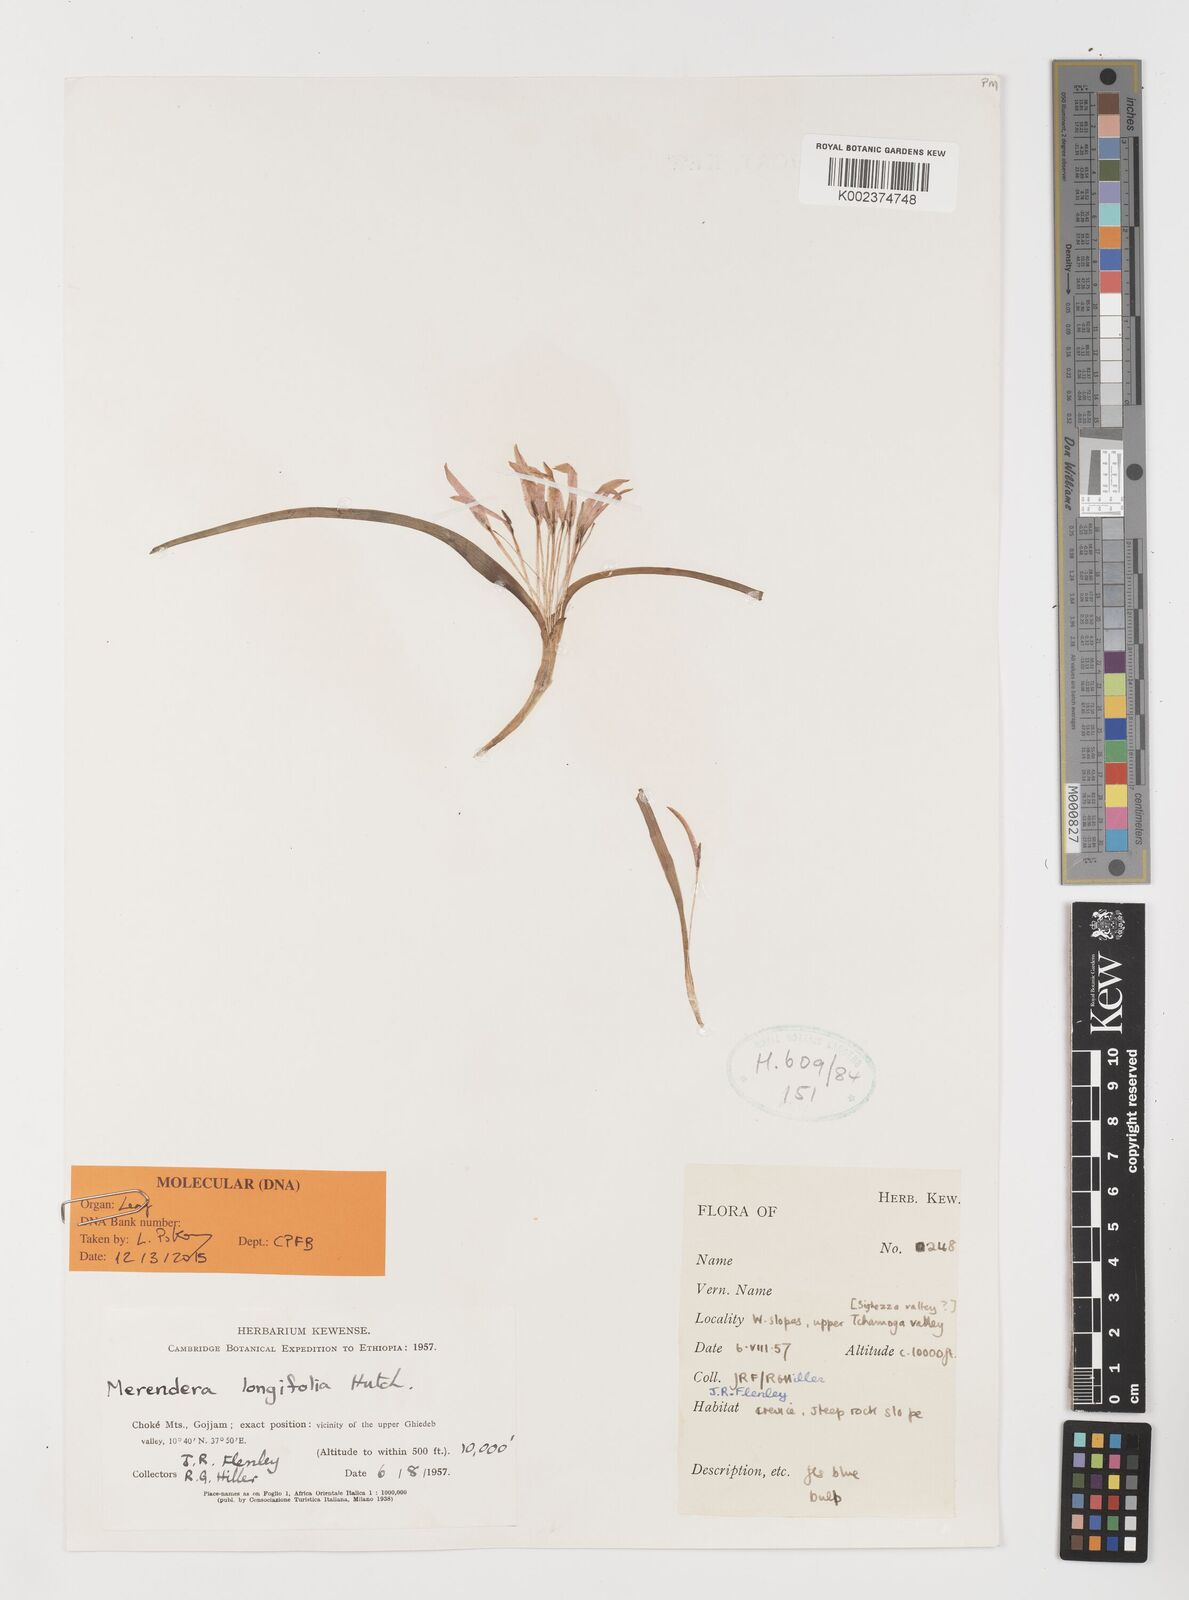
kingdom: Plantae
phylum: Tracheophyta
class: Liliopsida
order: Liliales
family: Colchicaceae
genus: Colchicum
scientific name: Colchicum
